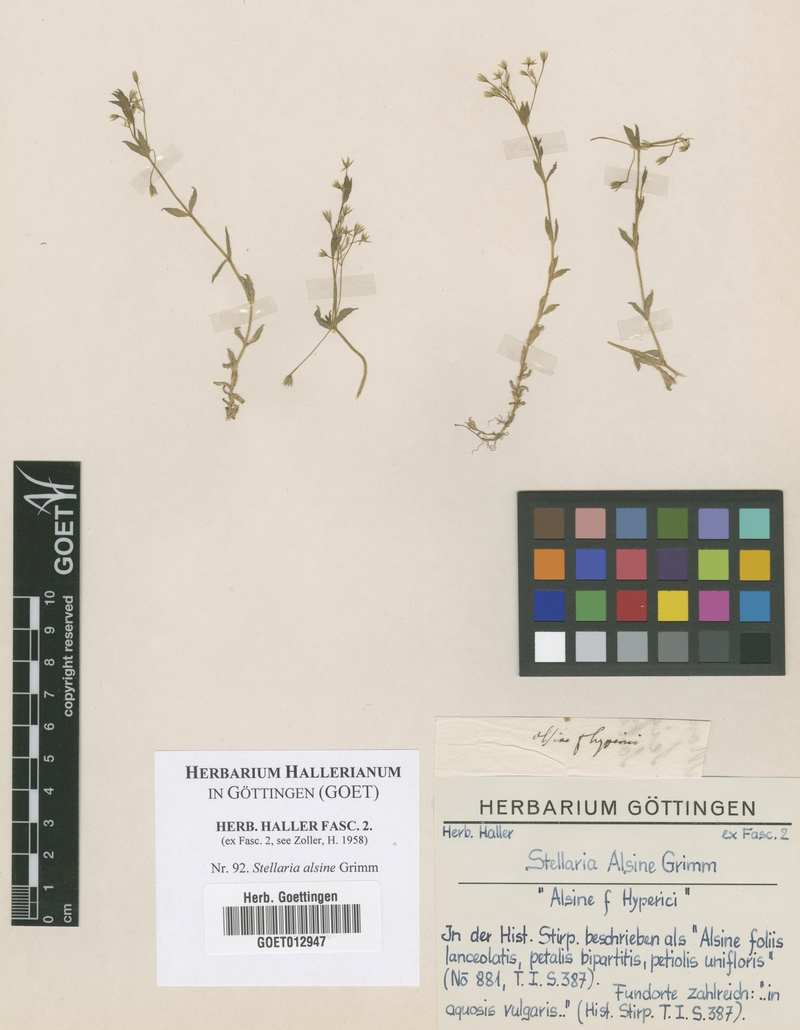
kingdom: Plantae
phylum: Tracheophyta
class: Magnoliopsida
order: Caryophyllales
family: Caryophyllaceae
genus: Stellaria
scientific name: Stellaria alsine
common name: Bog stitchwort
